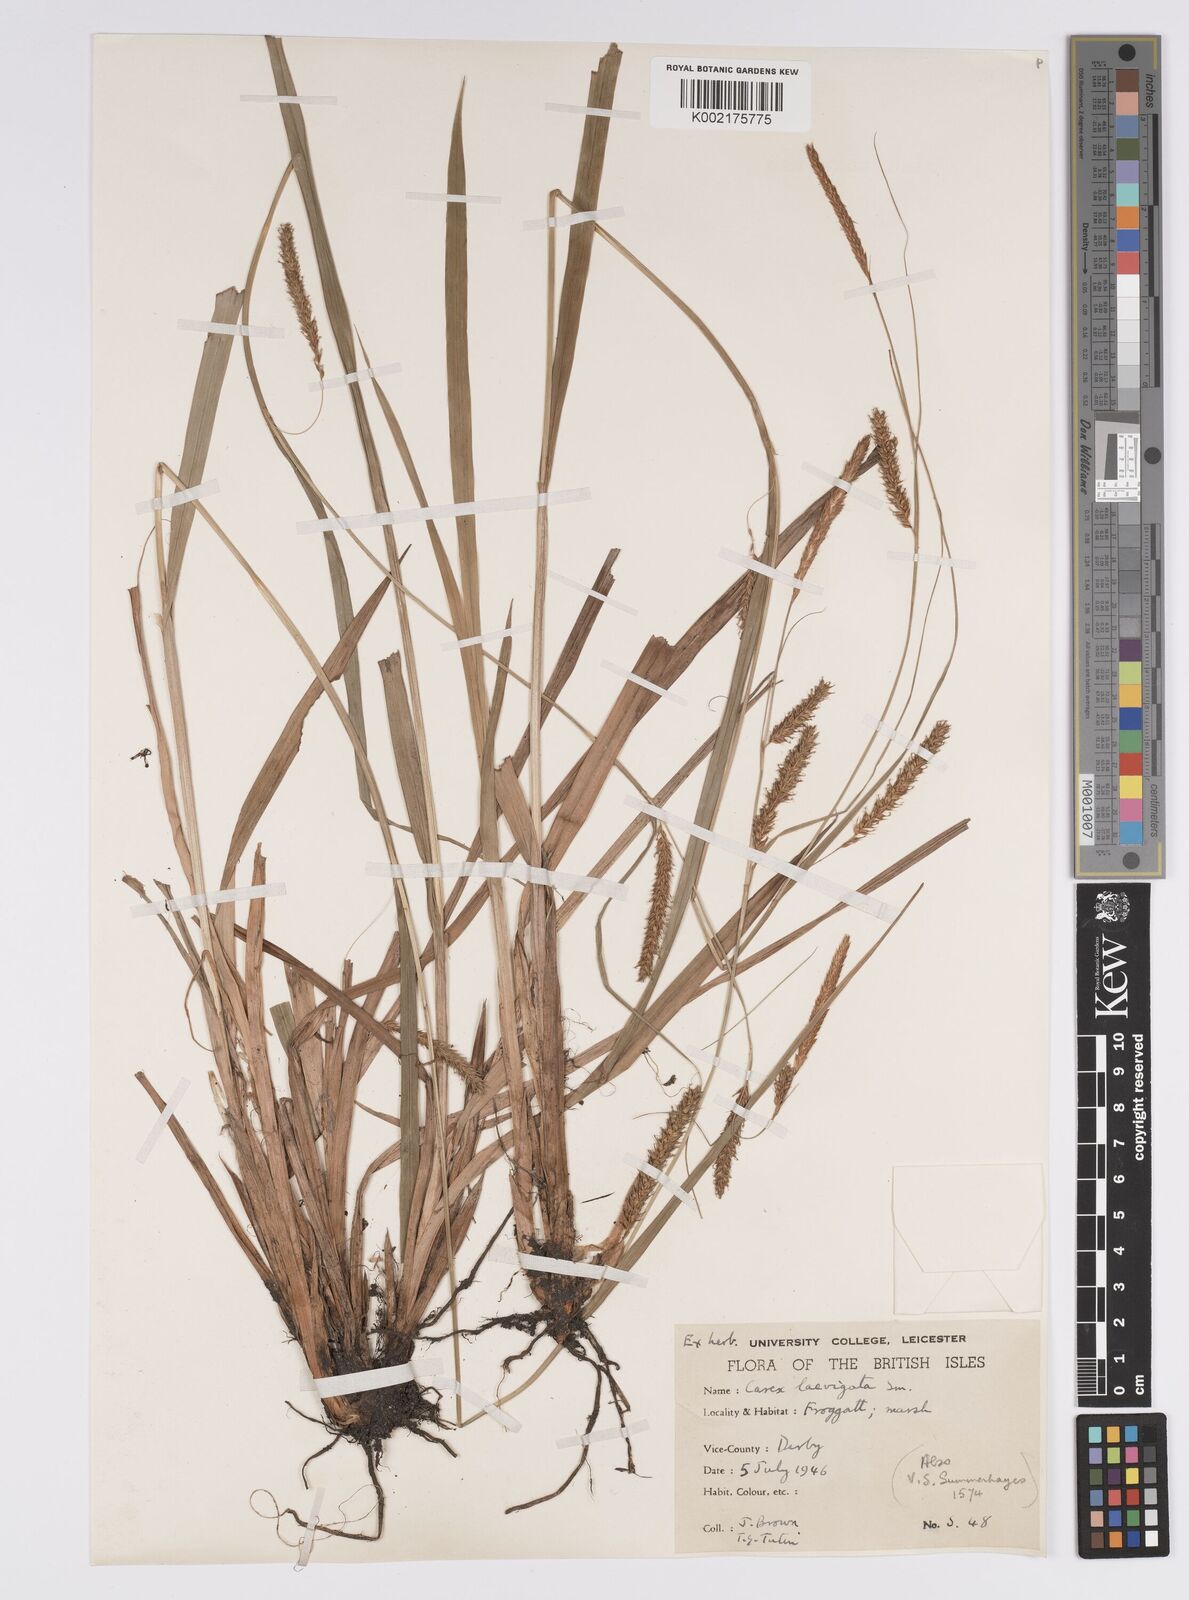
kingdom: Plantae
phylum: Tracheophyta
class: Liliopsida
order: Poales
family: Cyperaceae
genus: Carex
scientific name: Carex laevigata
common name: Smooth-stalked sedge
